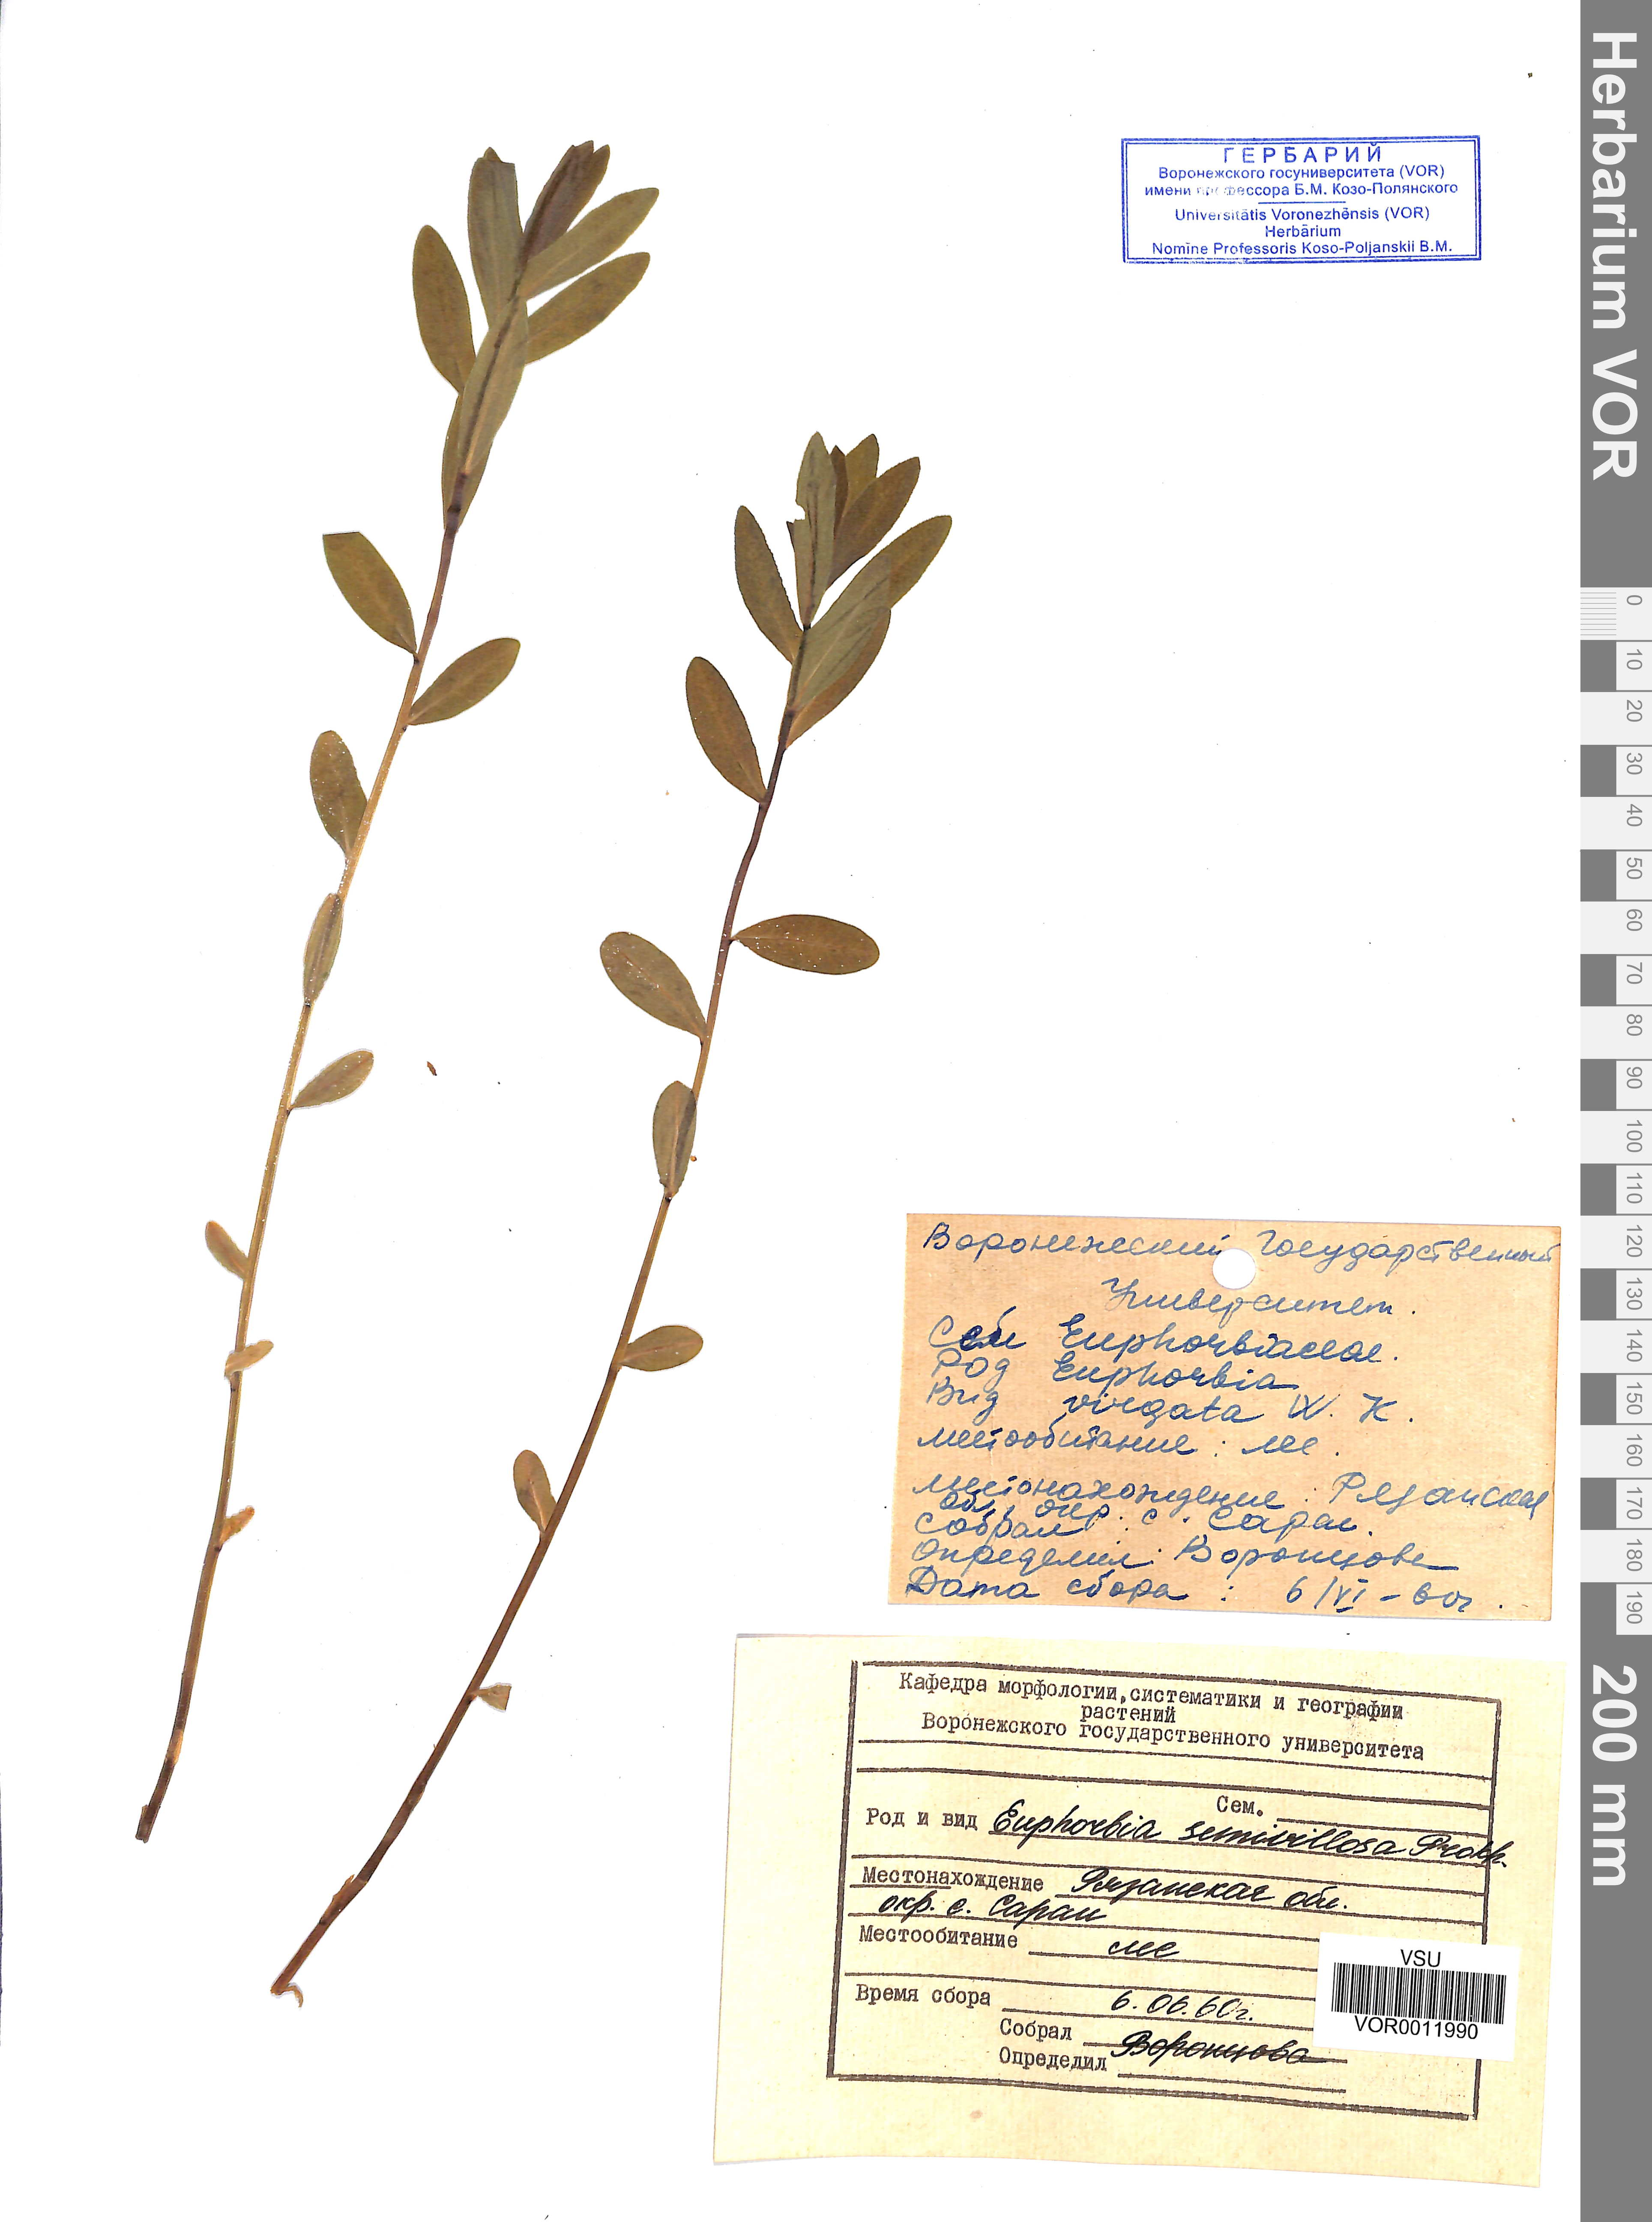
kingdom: Plantae
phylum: Tracheophyta
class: Magnoliopsida
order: Malpighiales
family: Euphorbiaceae
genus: Euphorbia
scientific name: Euphorbia semivillosa
